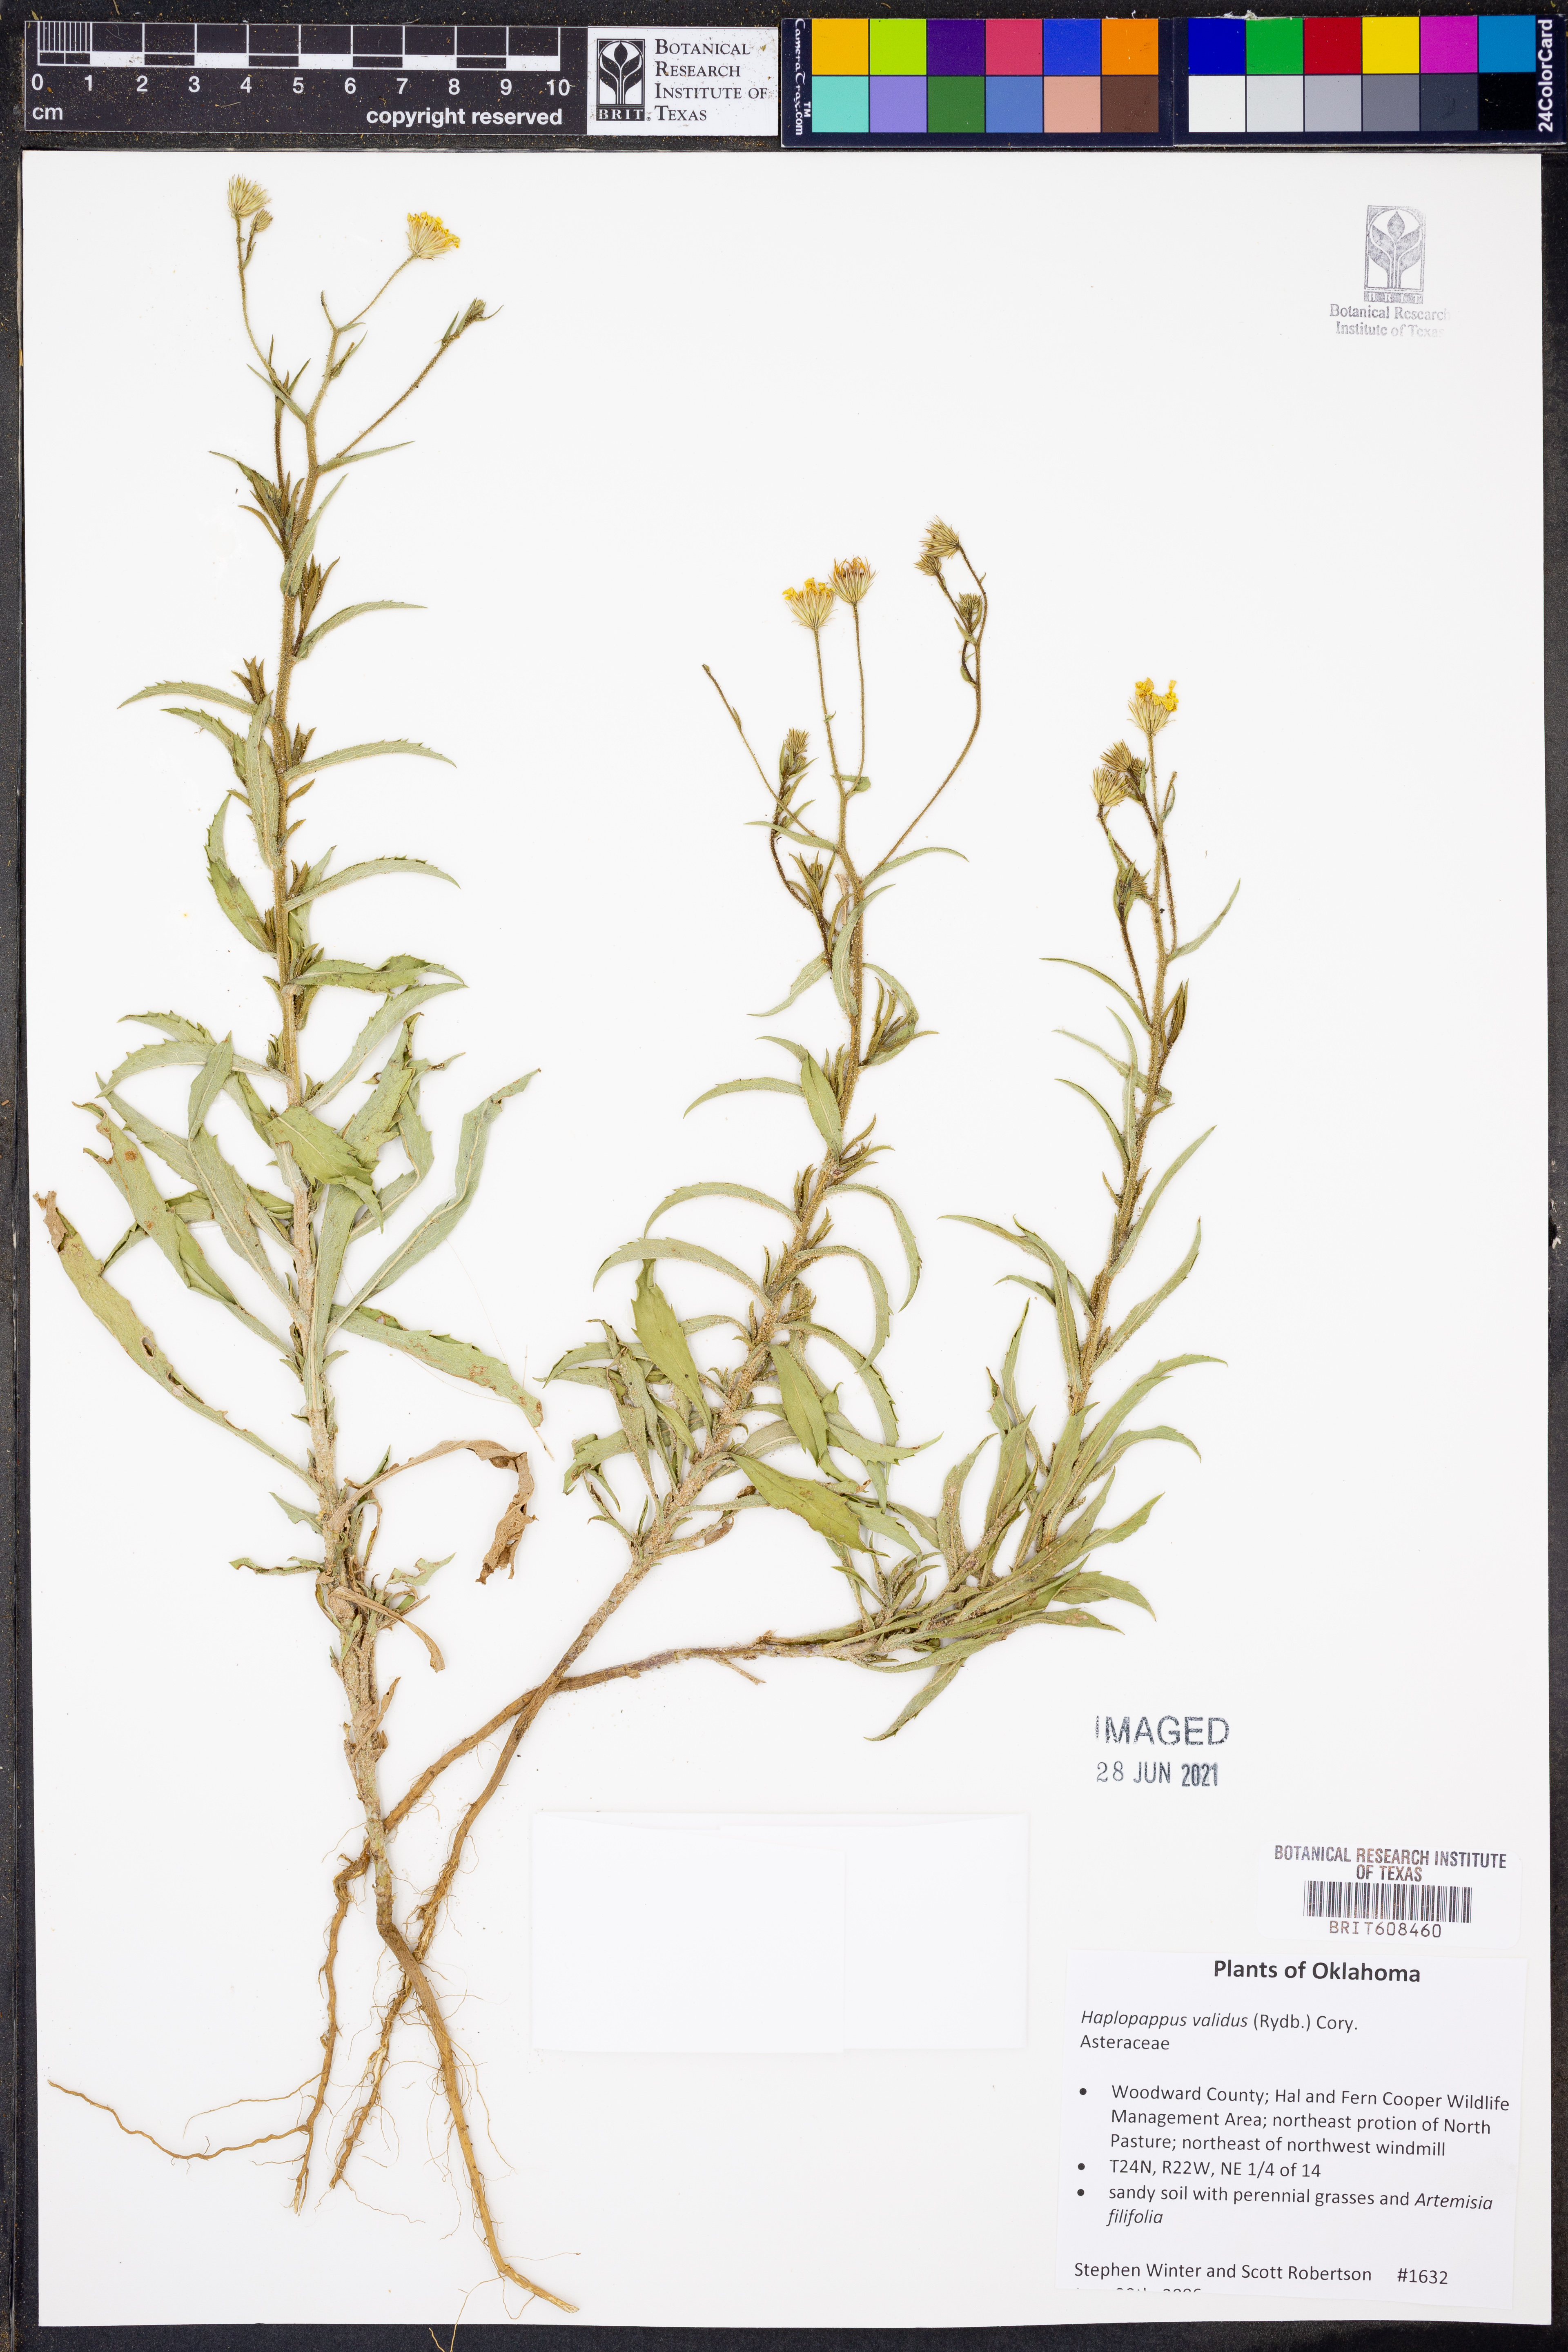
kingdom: Plantae
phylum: Tracheophyta
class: Magnoliopsida
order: Asterales
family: Asteraceae
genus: Croptilon
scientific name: Croptilon hookerianum
